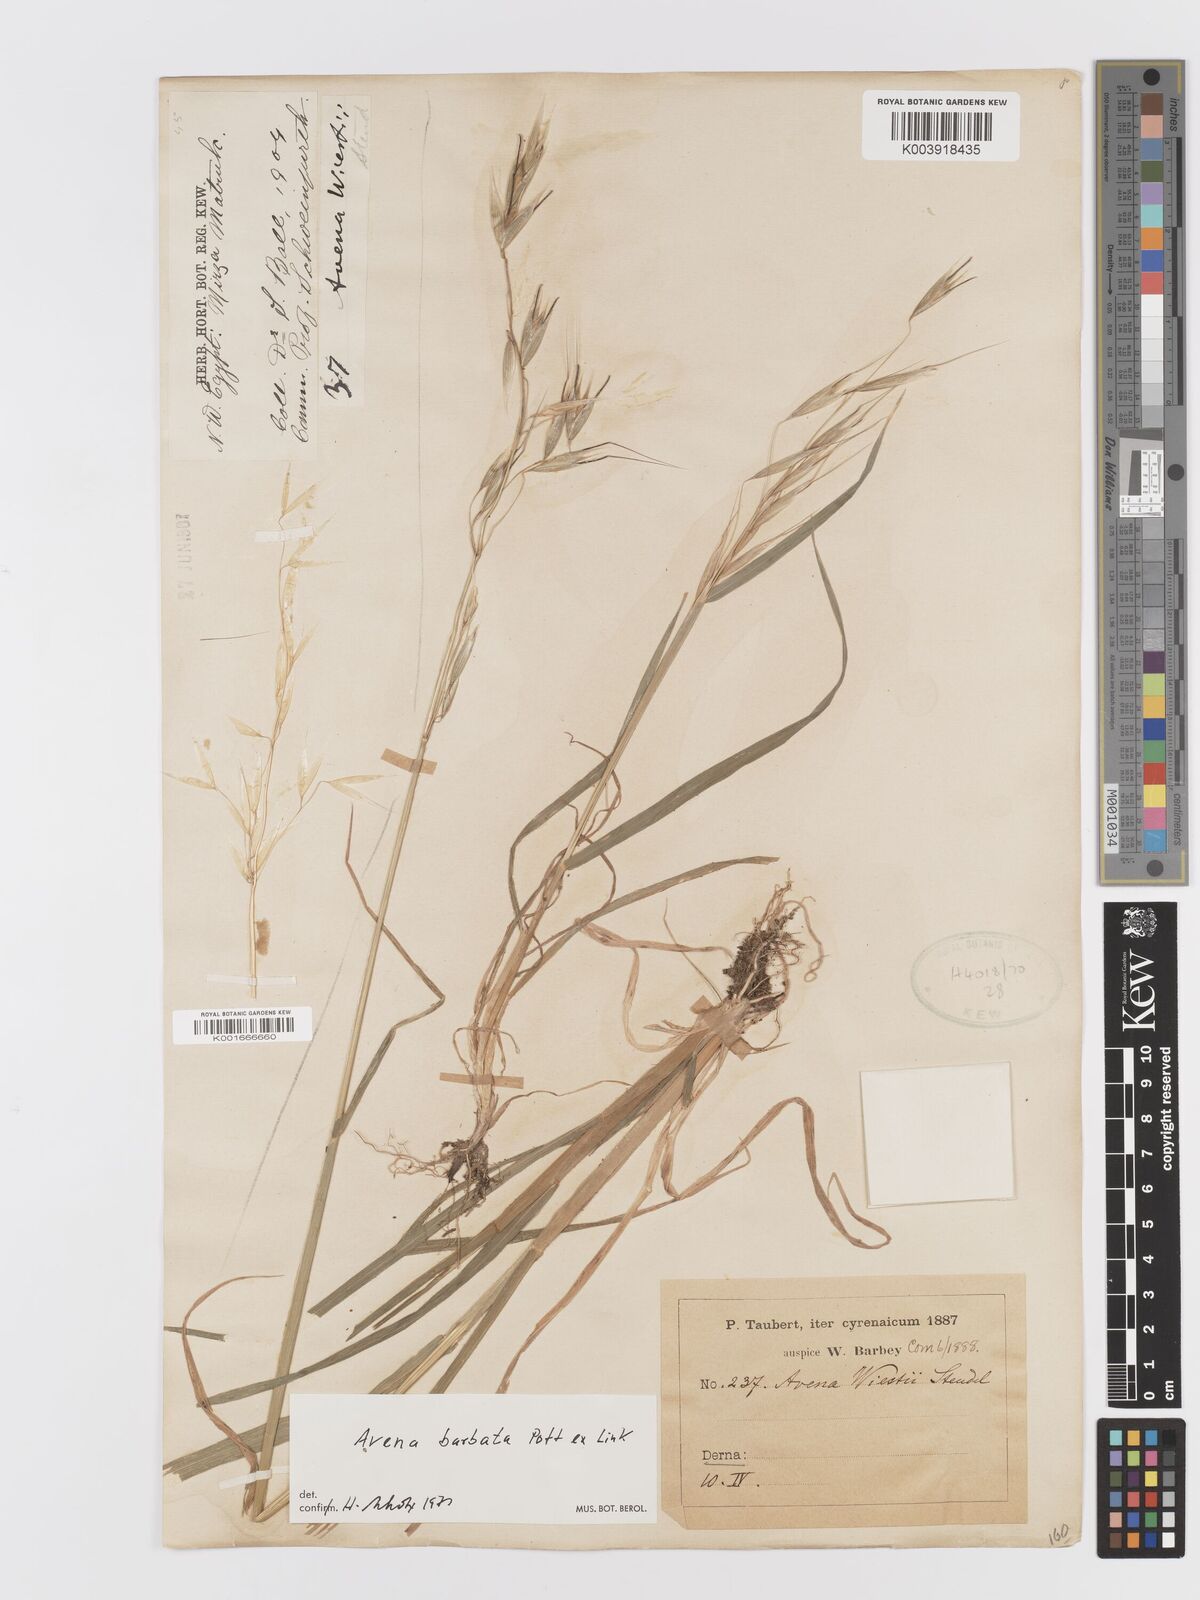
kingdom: Plantae
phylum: Tracheophyta
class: Liliopsida
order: Poales
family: Poaceae
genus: Avena
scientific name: Avena
